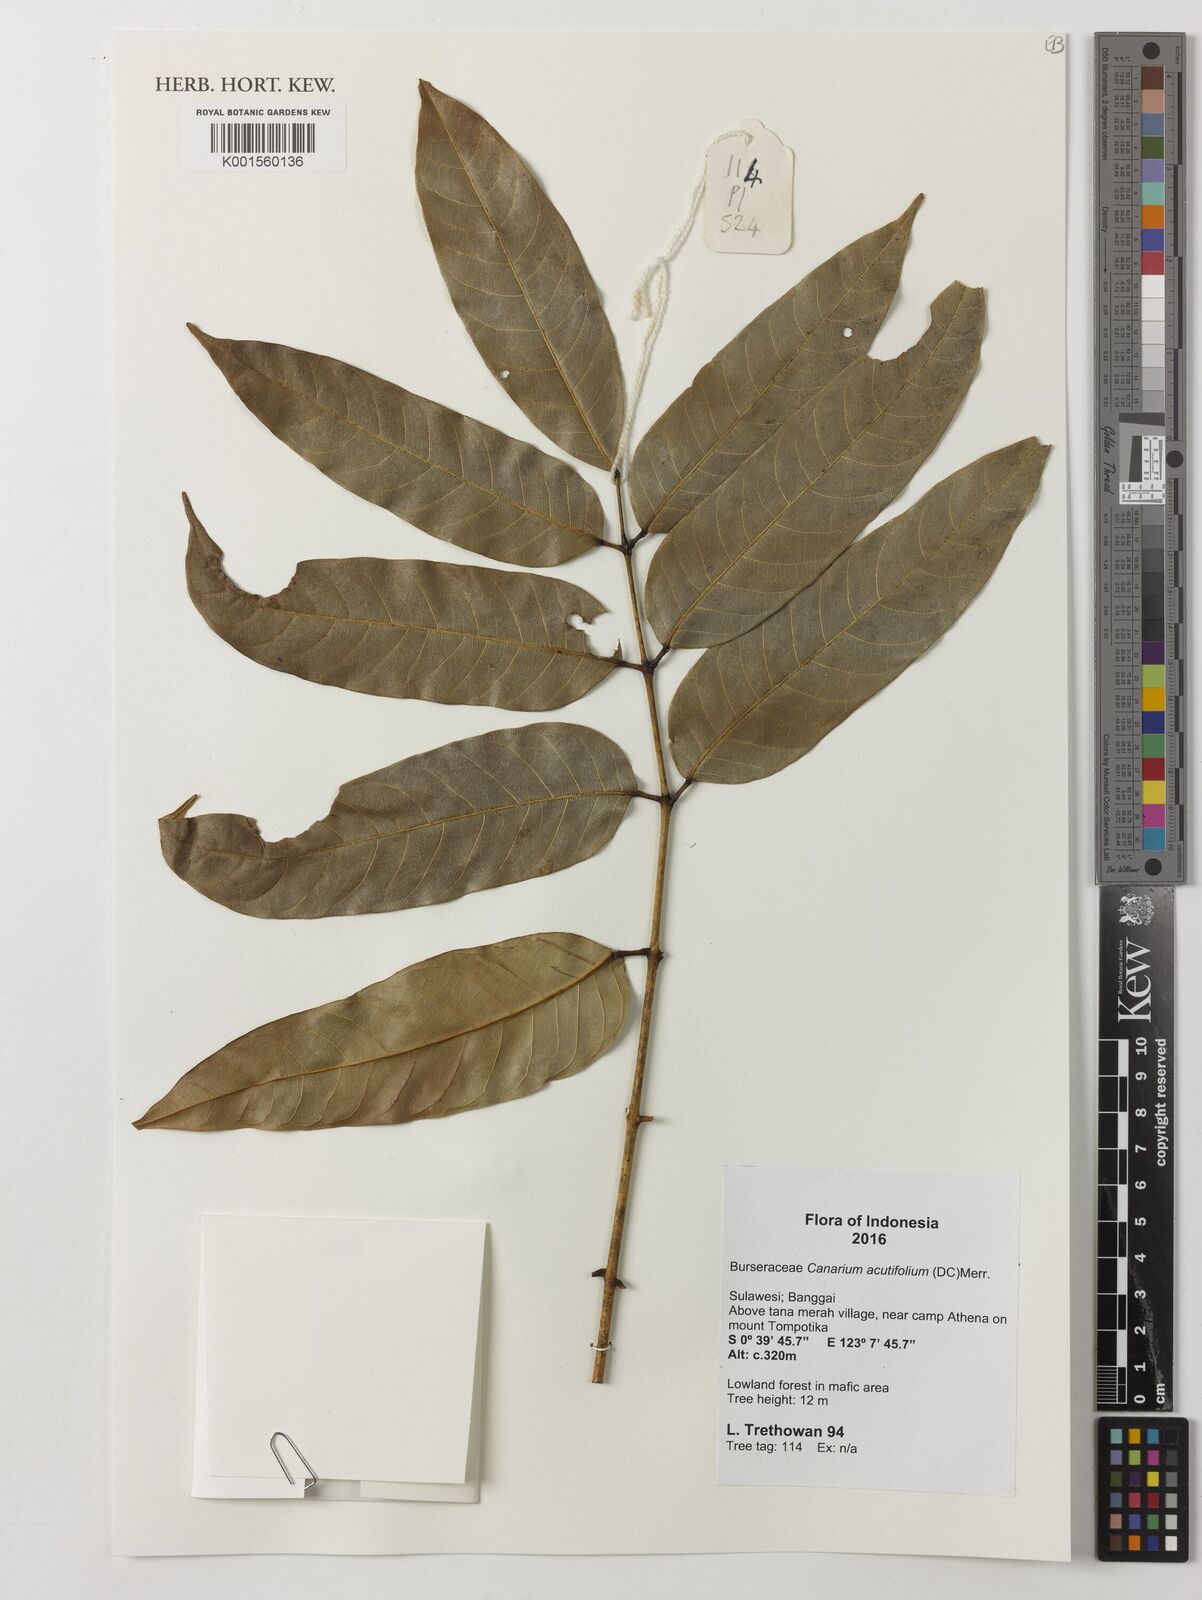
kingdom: Plantae
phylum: Tracheophyta
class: Magnoliopsida
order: Sapindales
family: Burseraceae
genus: Canarium
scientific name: Canarium acutifolium
